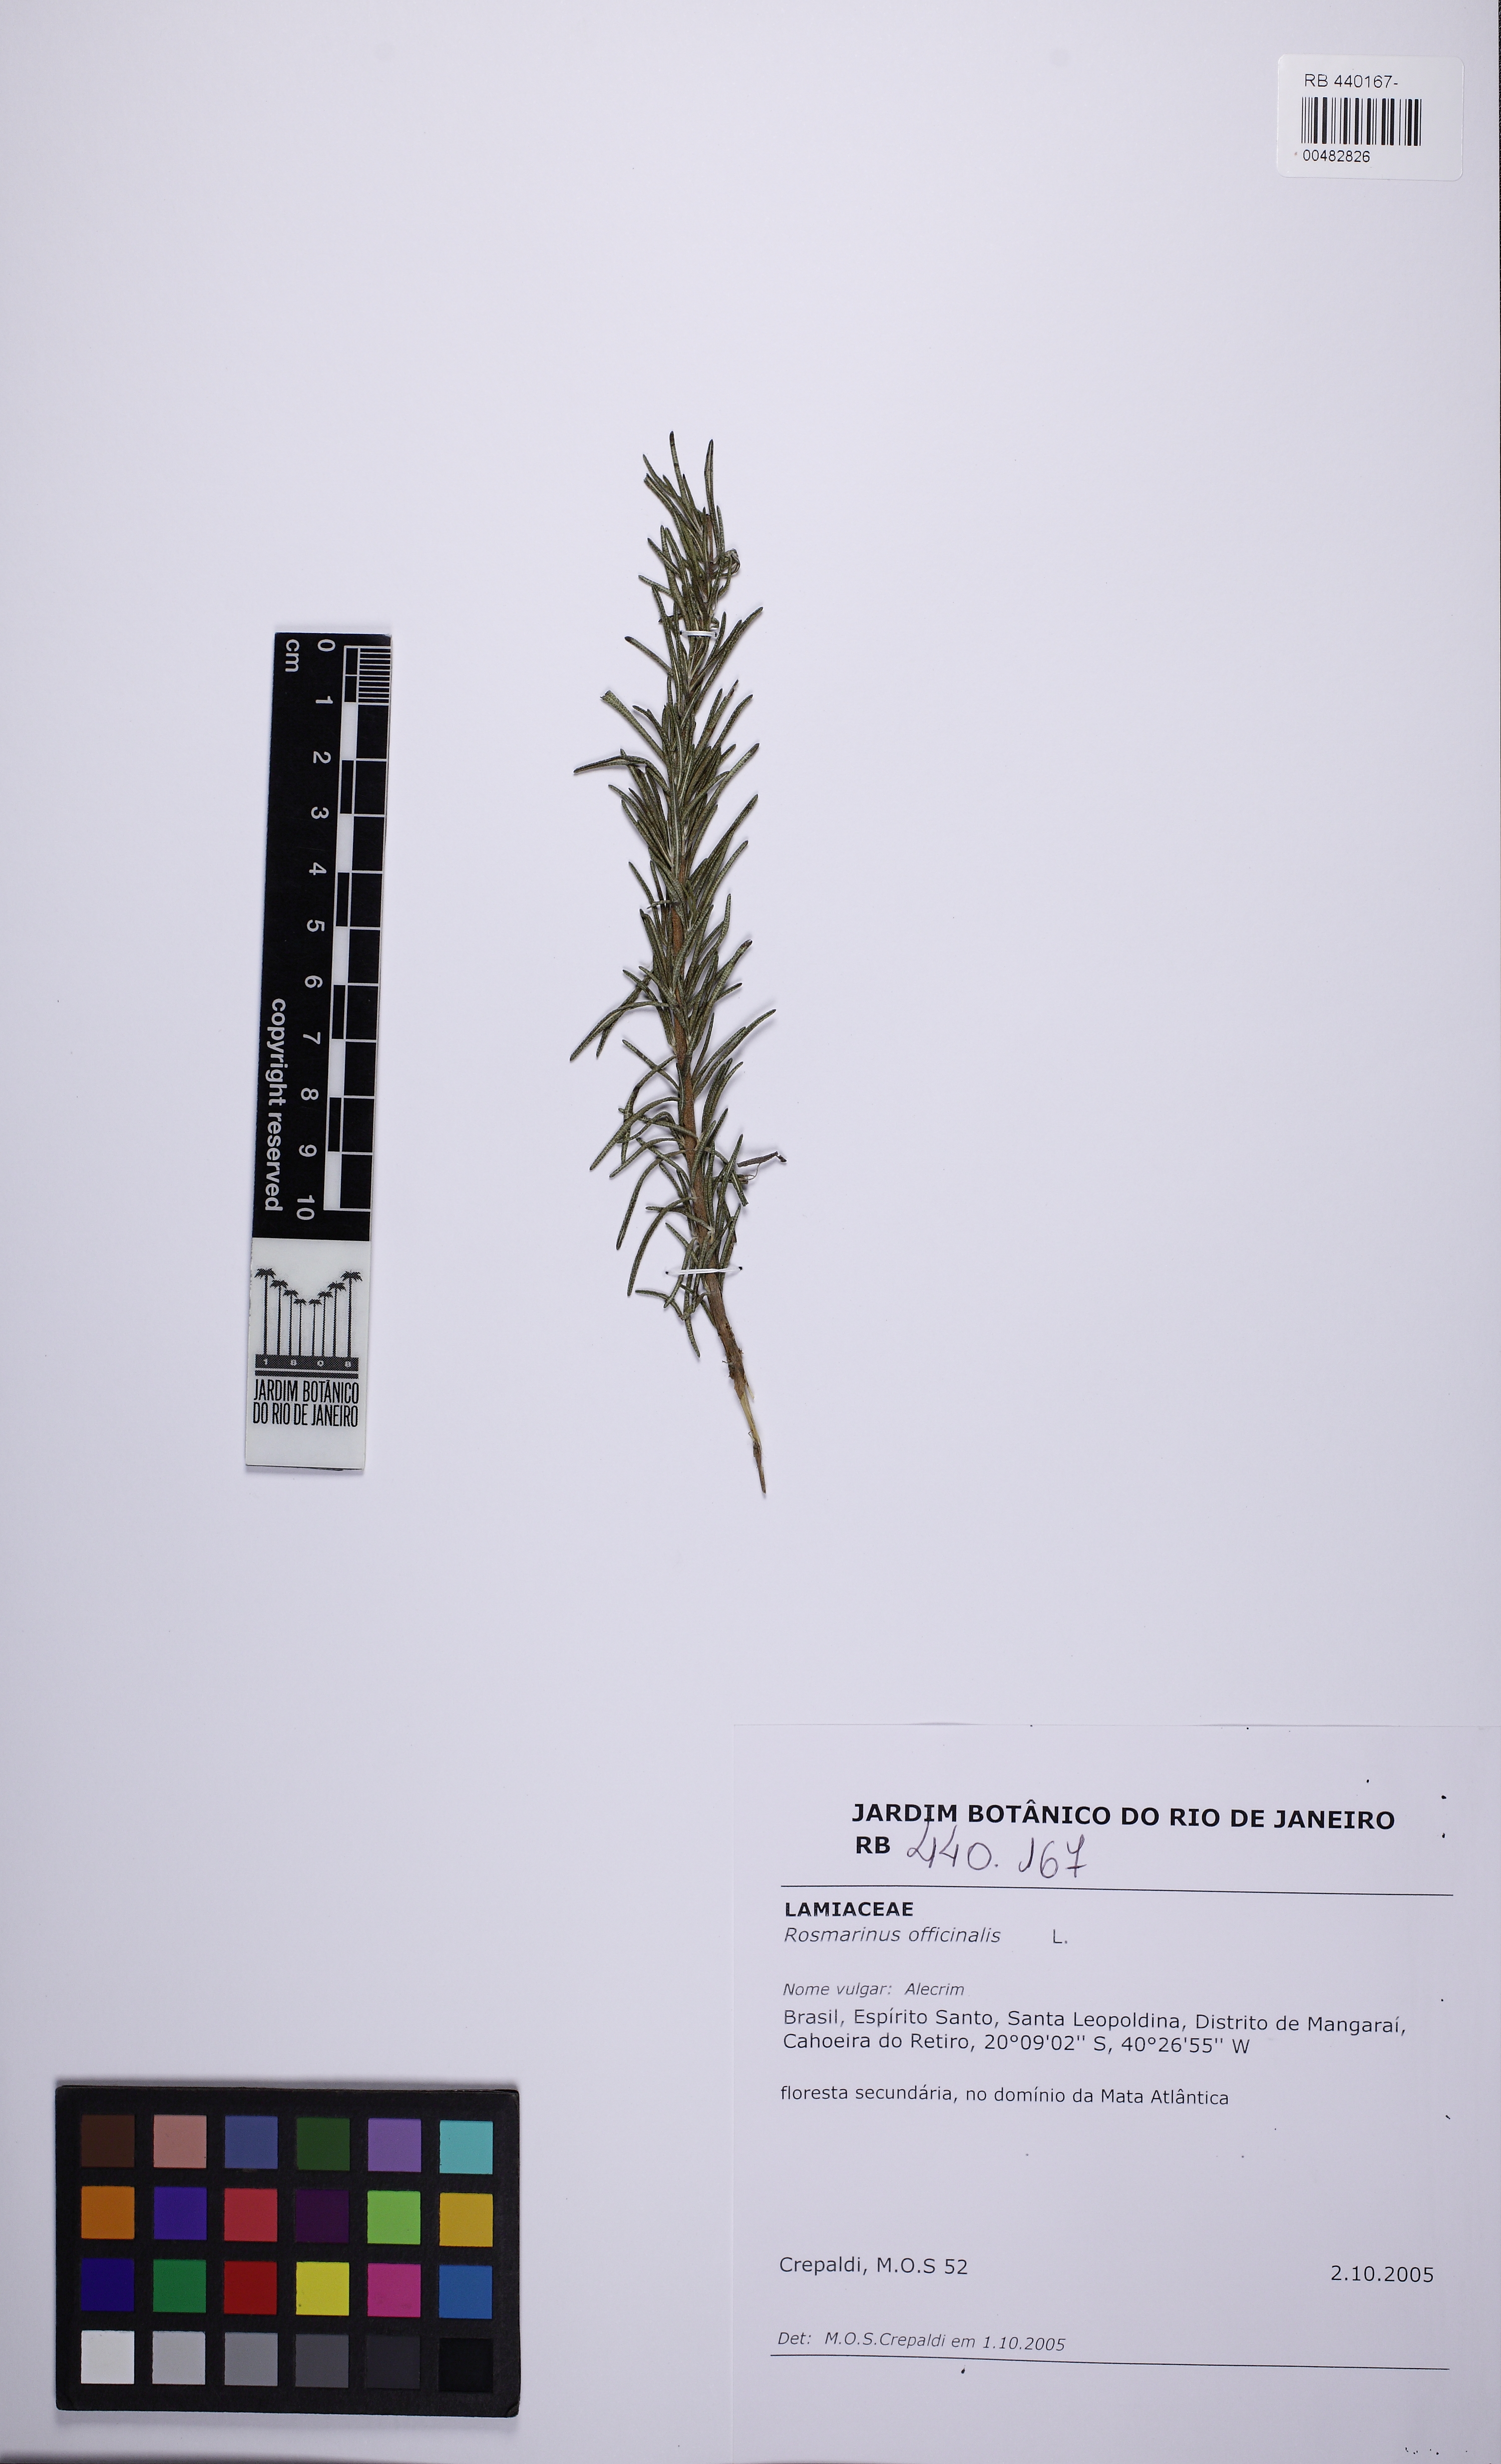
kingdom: Plantae
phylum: Tracheophyta
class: Magnoliopsida
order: Lamiales
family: Lamiaceae
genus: Salvia
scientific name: Salvia rosmarinus
